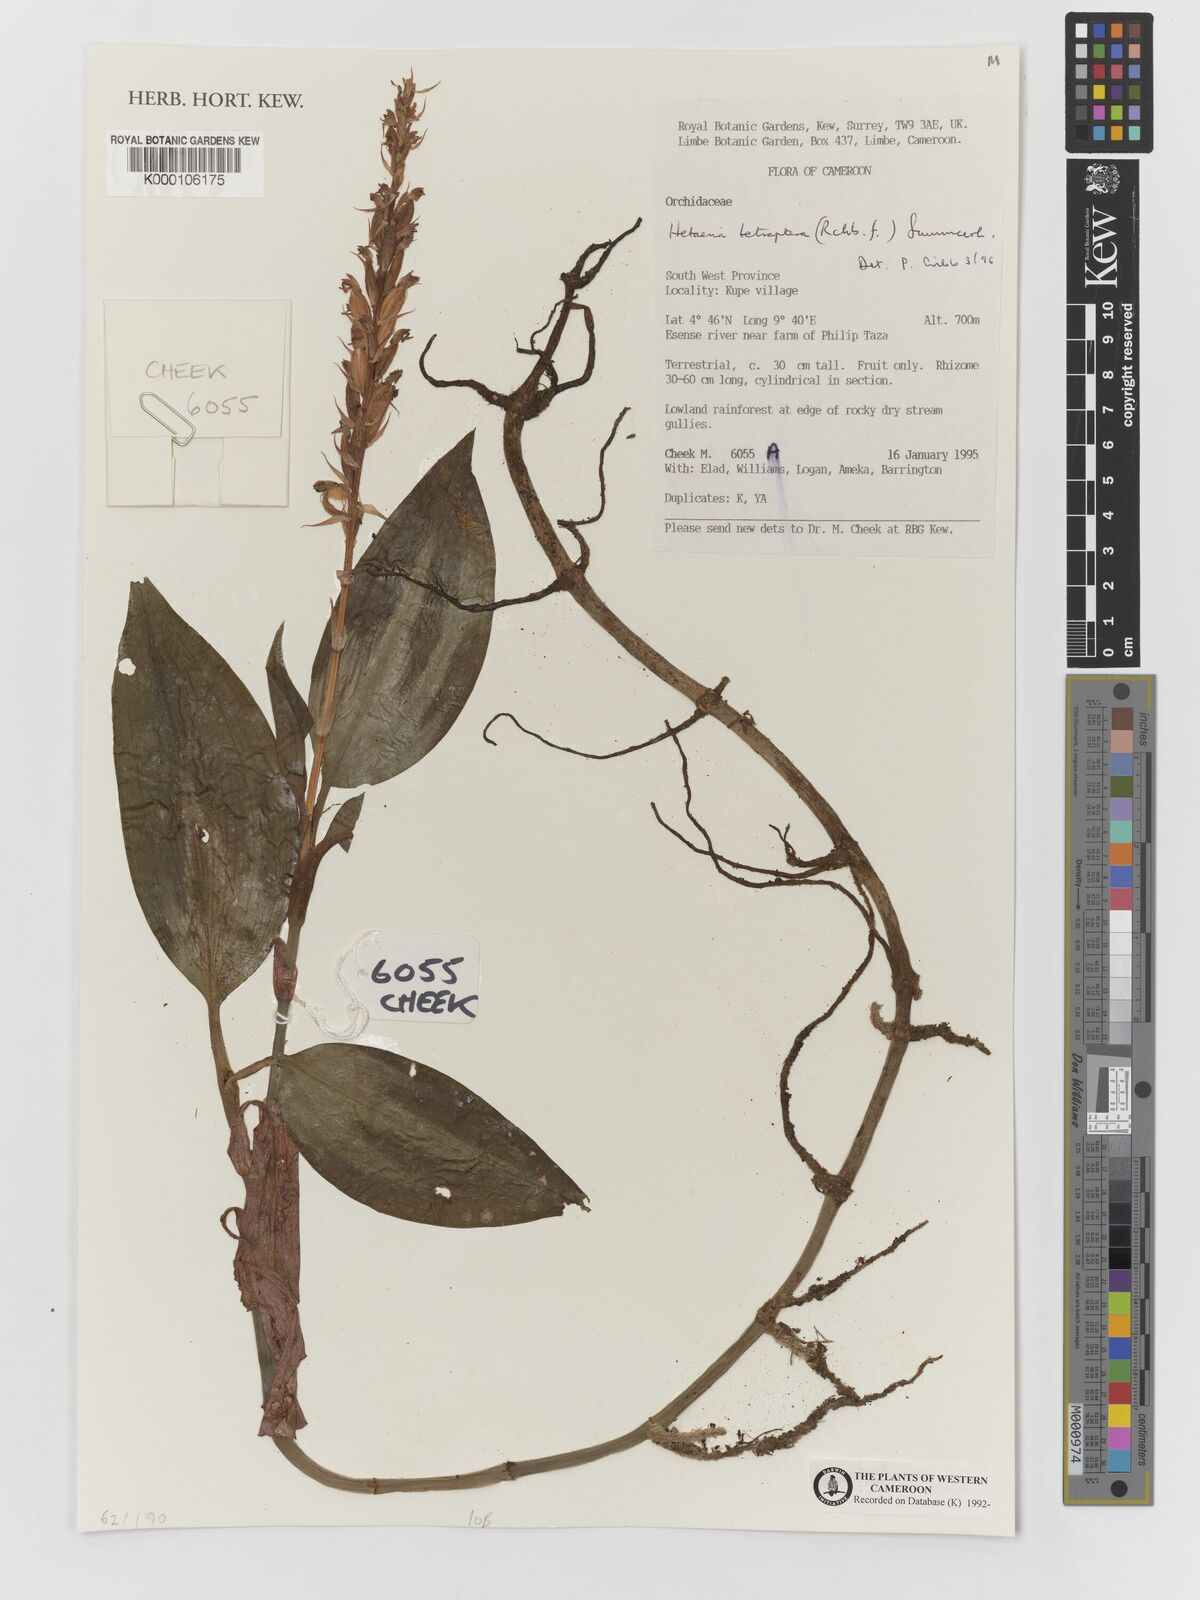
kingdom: Plantae
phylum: Tracheophyta
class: Liliopsida
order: Asparagales
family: Orchidaceae
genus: Hetaeria
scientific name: Hetaeria tetraptera
